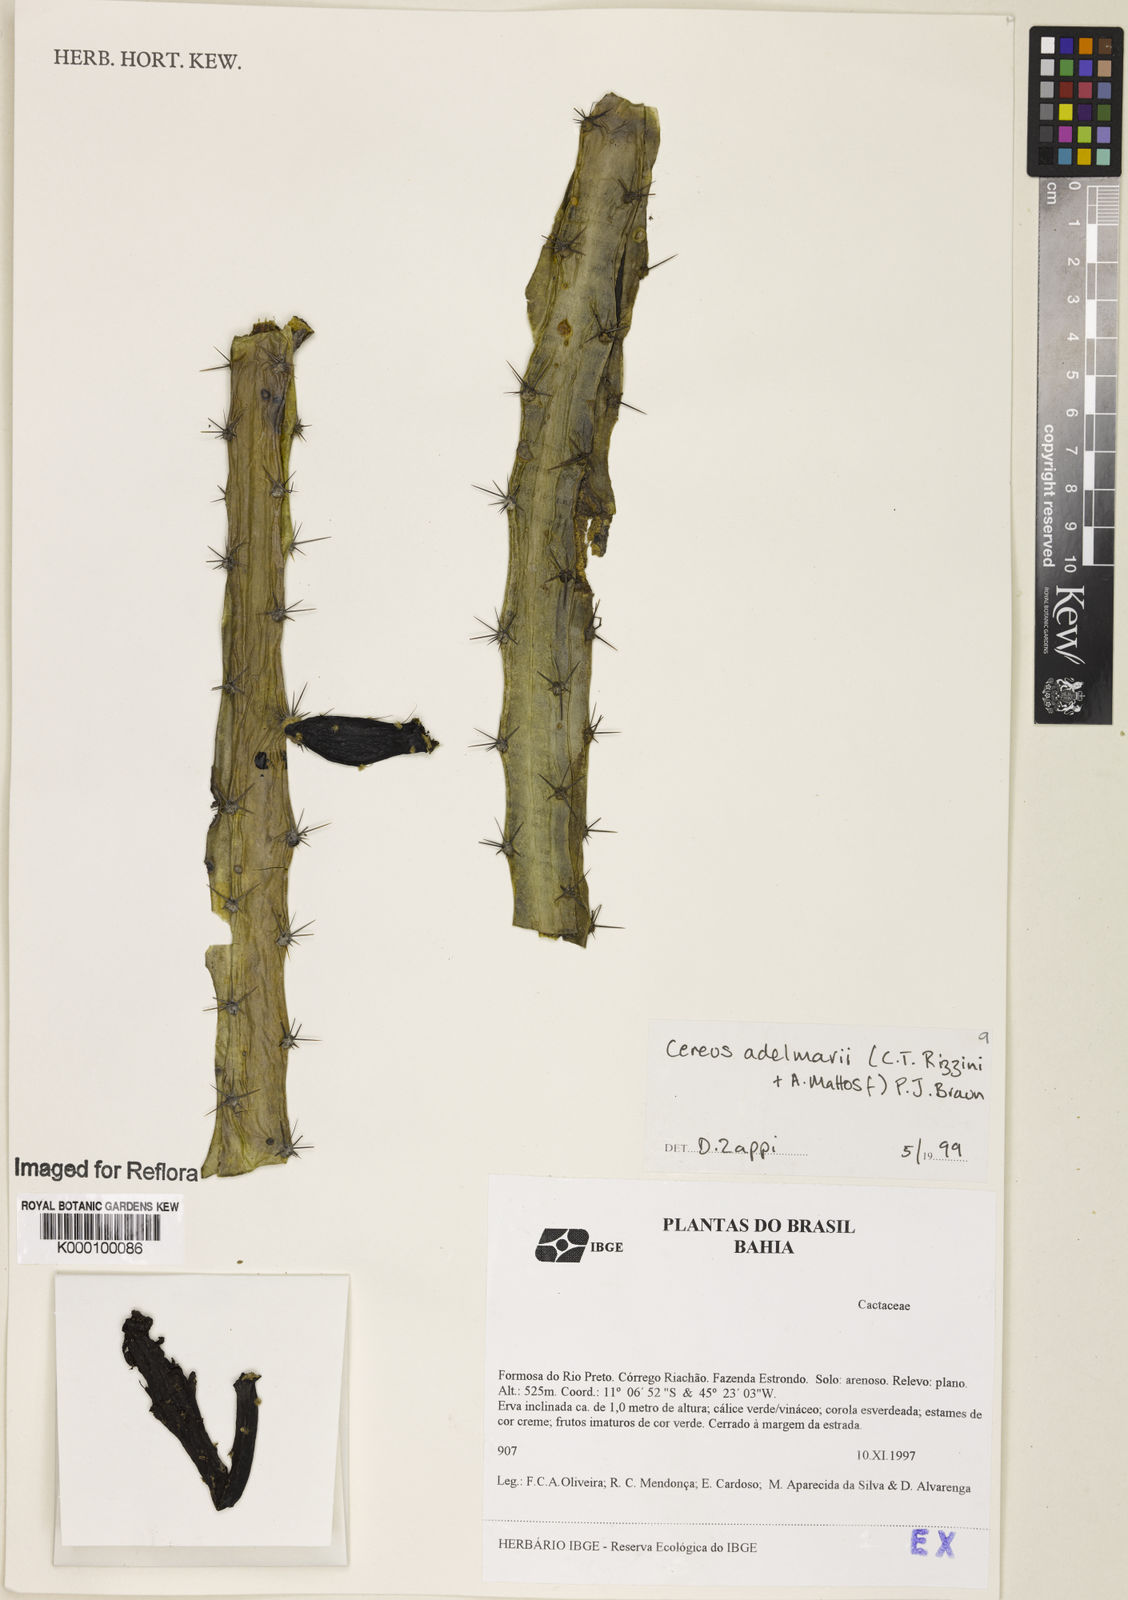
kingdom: Plantae
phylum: Tracheophyta
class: Magnoliopsida
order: Caryophyllales
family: Cactaceae
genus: Cereus
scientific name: Cereus phatnospermus
